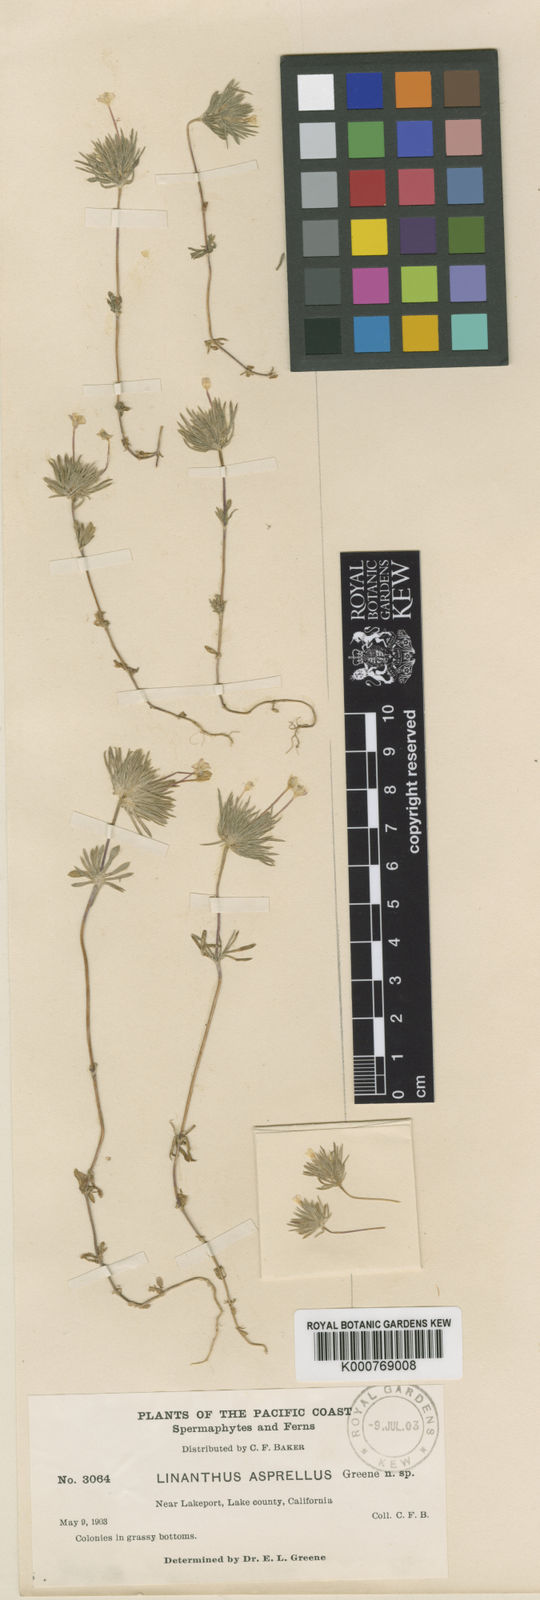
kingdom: Plantae
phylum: Tracheophyta
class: Magnoliopsida
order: Ericales
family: Polemoniaceae
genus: Leptosiphon
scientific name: Leptosiphon bicolor
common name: True babystars
